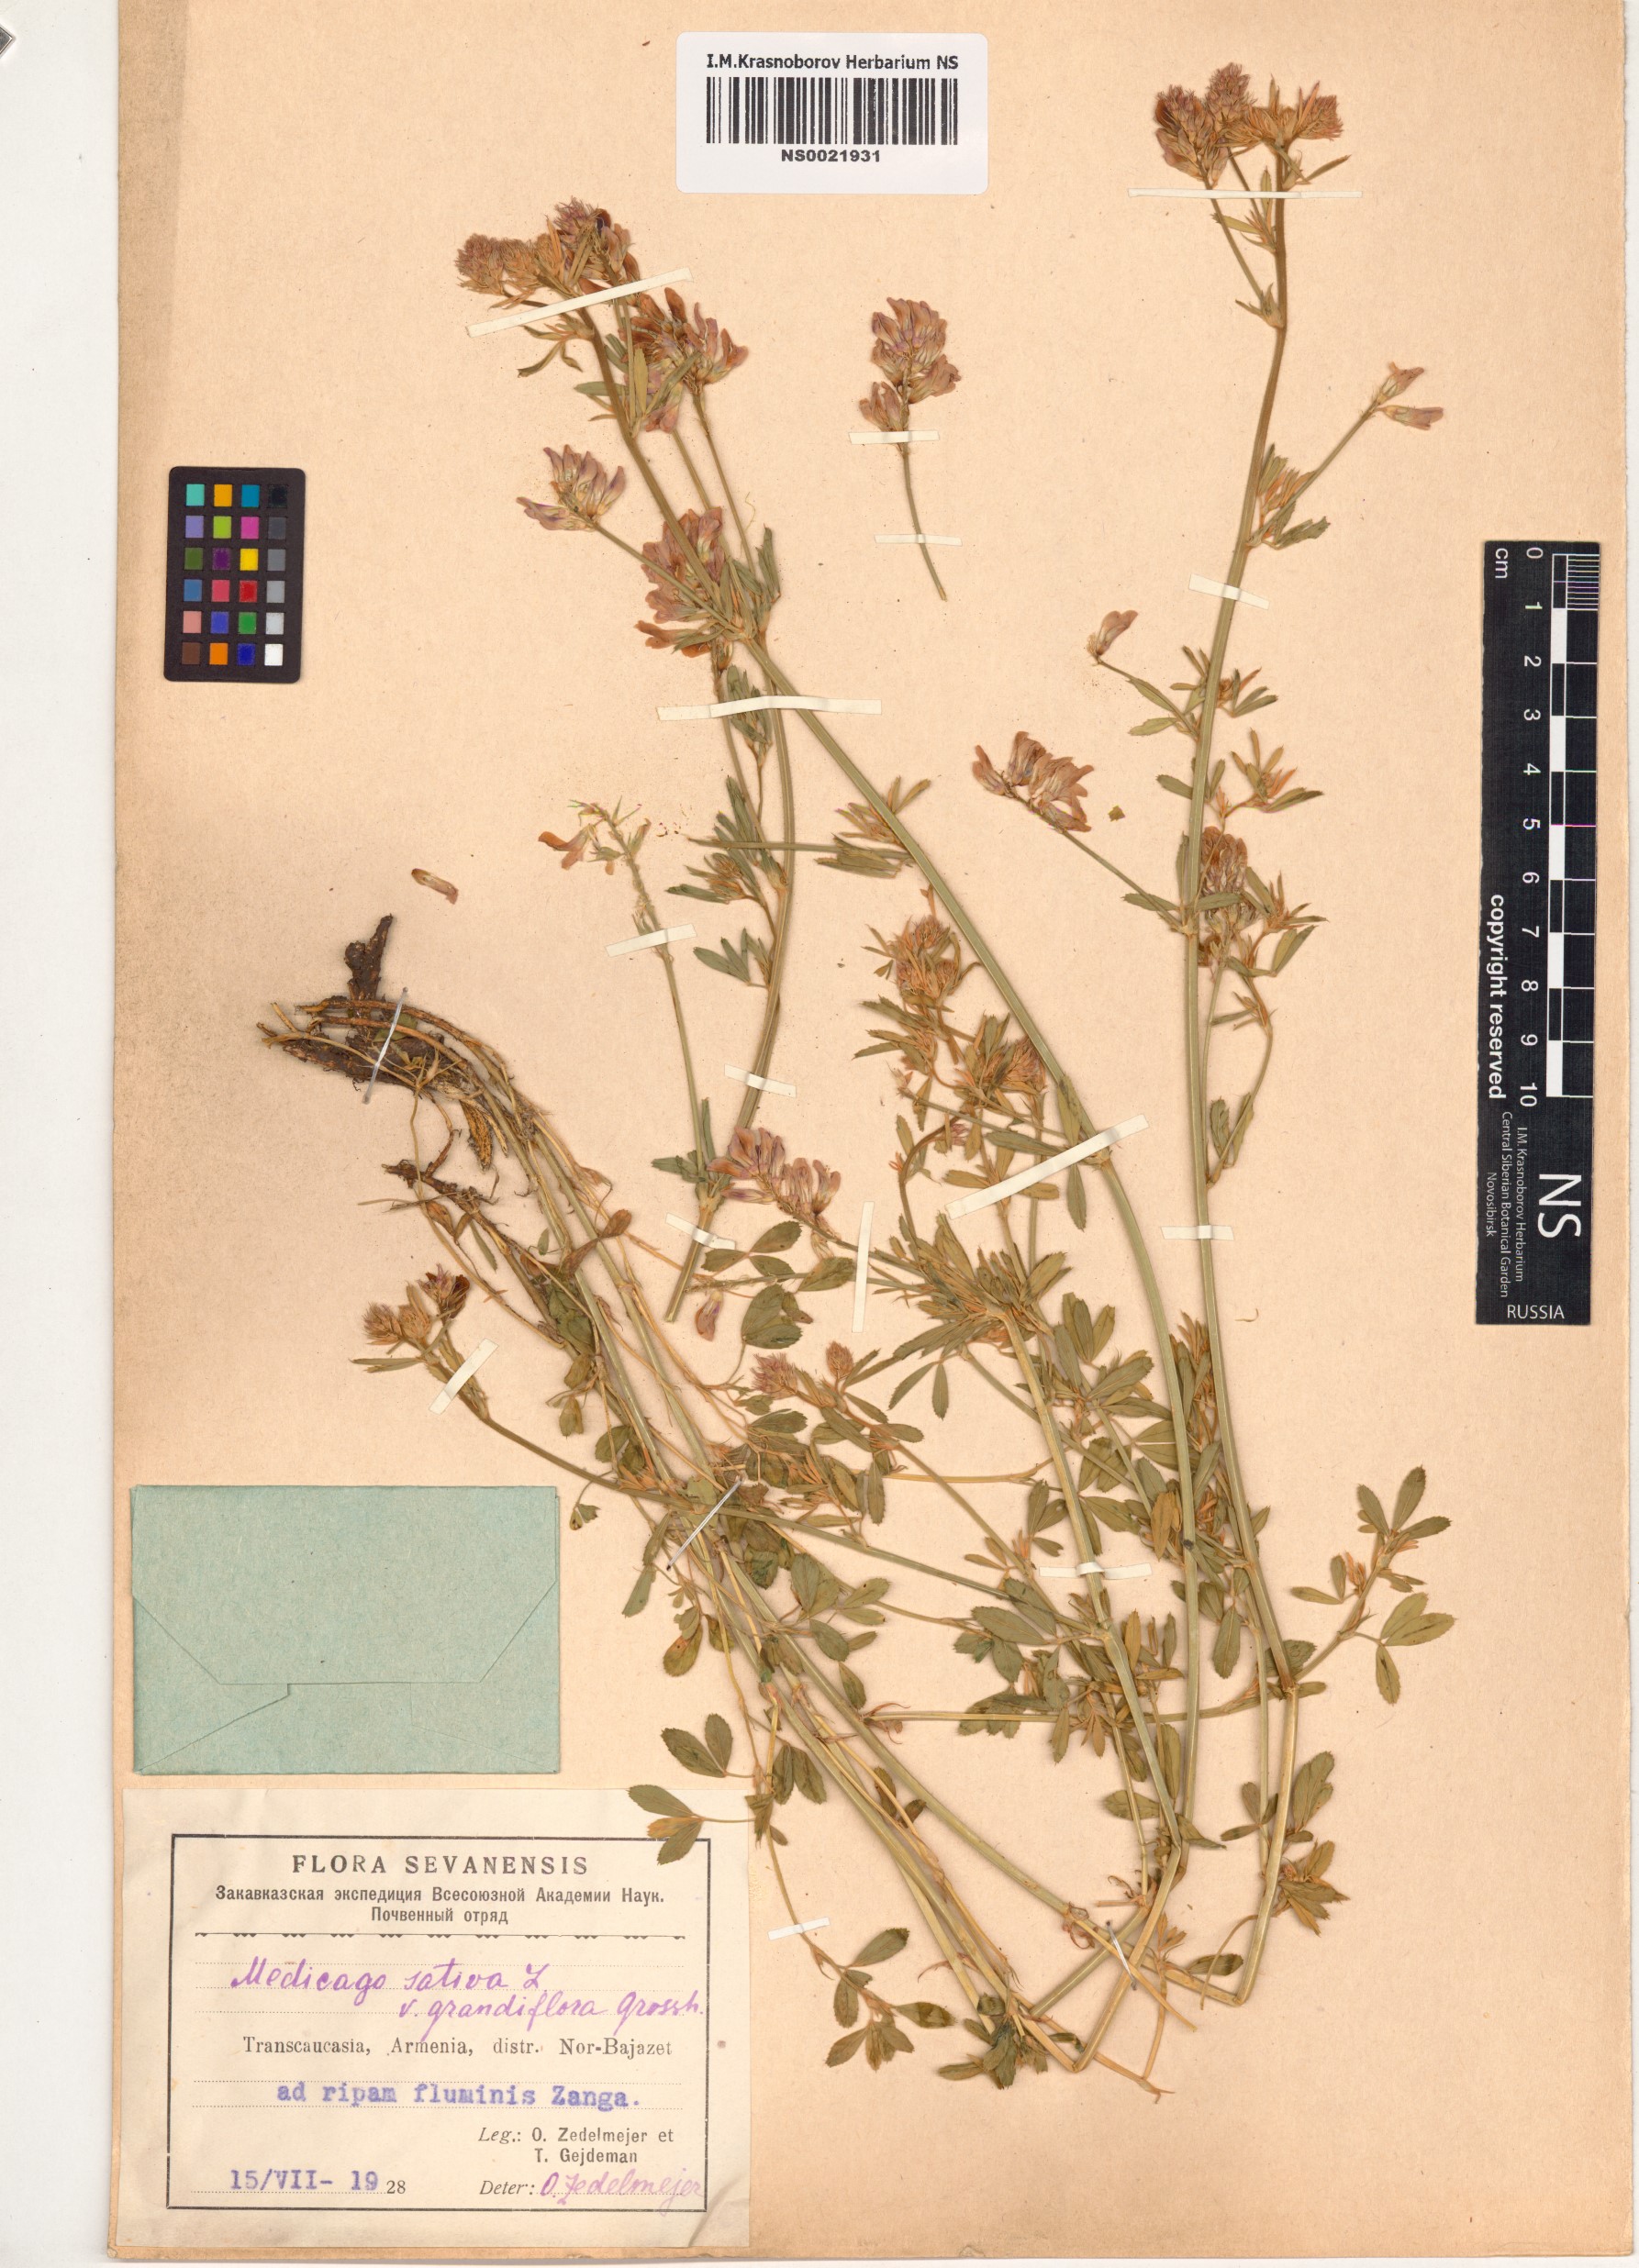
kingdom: Plantae
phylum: Tracheophyta
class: Magnoliopsida
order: Fabales
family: Fabaceae
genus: Medicago
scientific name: Medicago varia
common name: Sand lucerne
